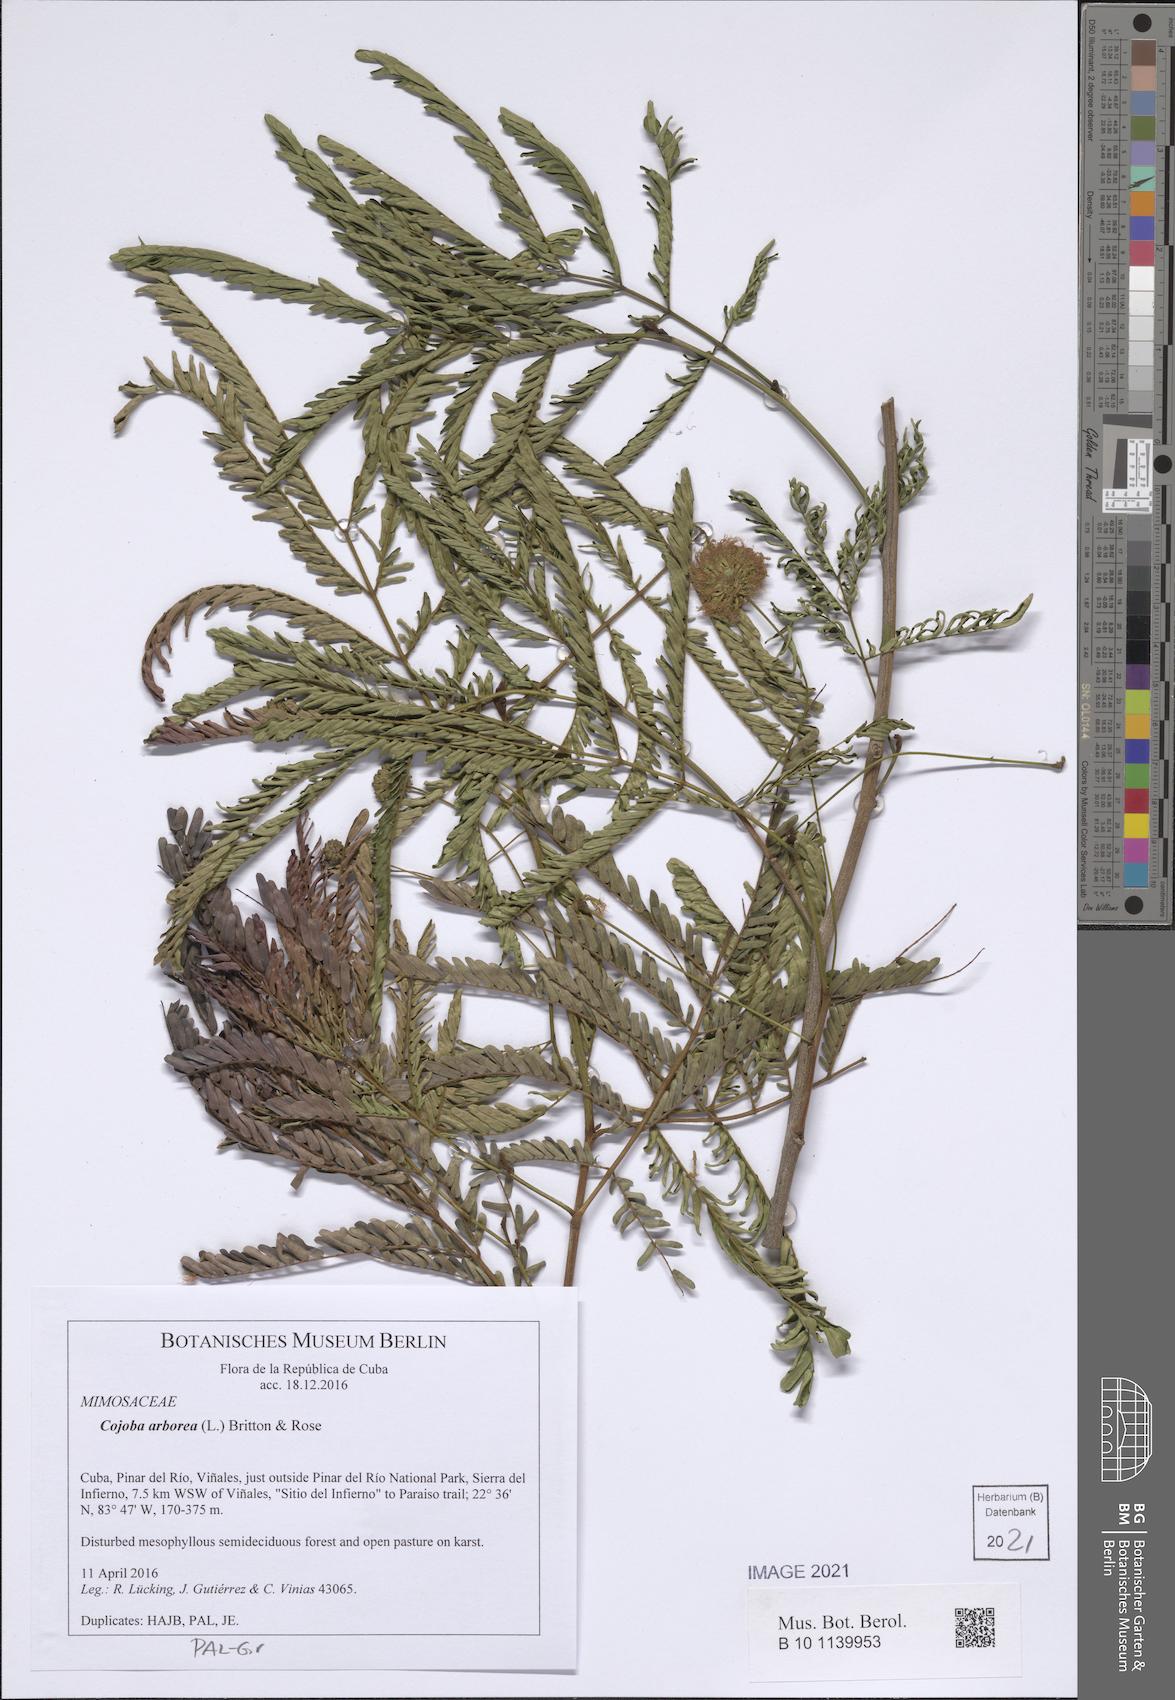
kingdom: Plantae
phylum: Tracheophyta
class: Magnoliopsida
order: Fabales
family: Fabaceae
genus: Cojoba
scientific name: Cojoba arborea
